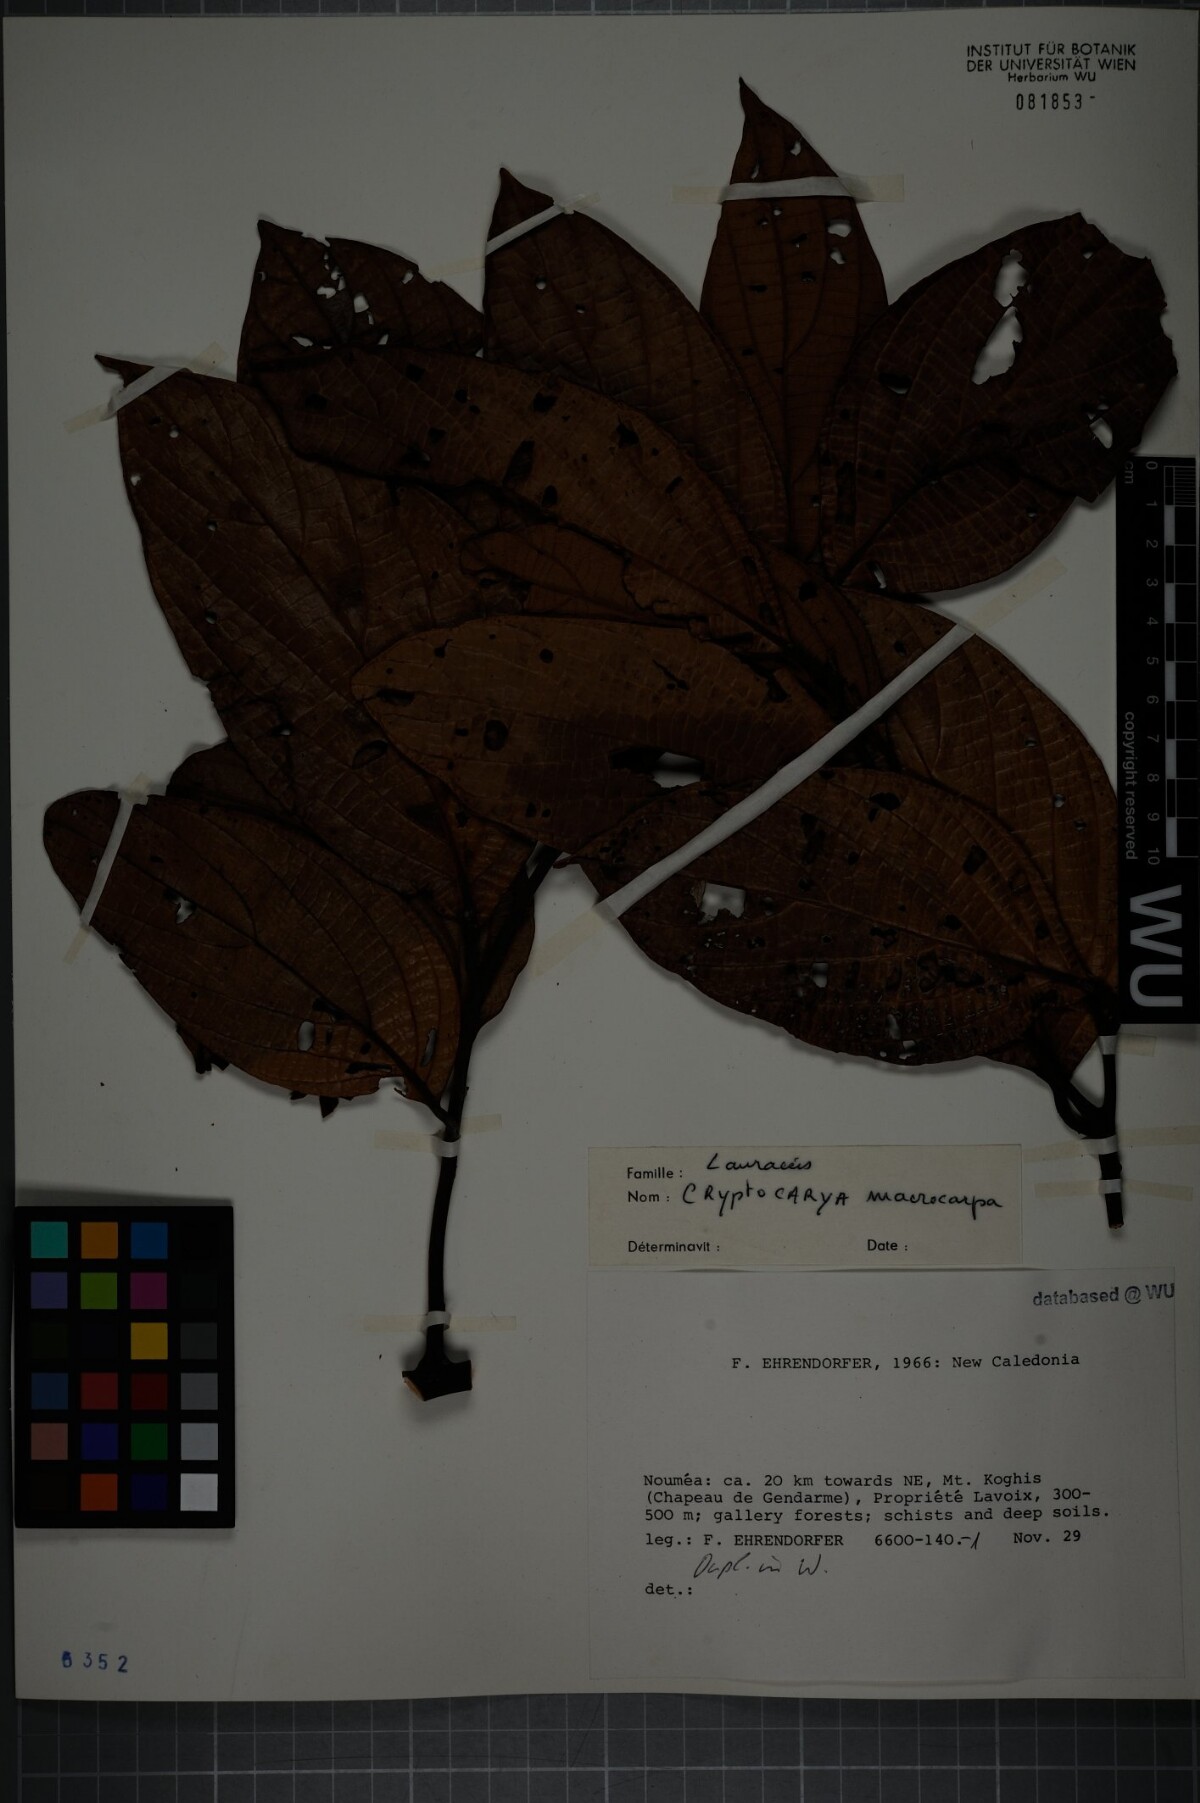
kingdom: Plantae
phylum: Tracheophyta
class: Magnoliopsida
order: Laurales
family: Lauraceae
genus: Cryptocarya
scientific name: Cryptocarya macrocarpa
